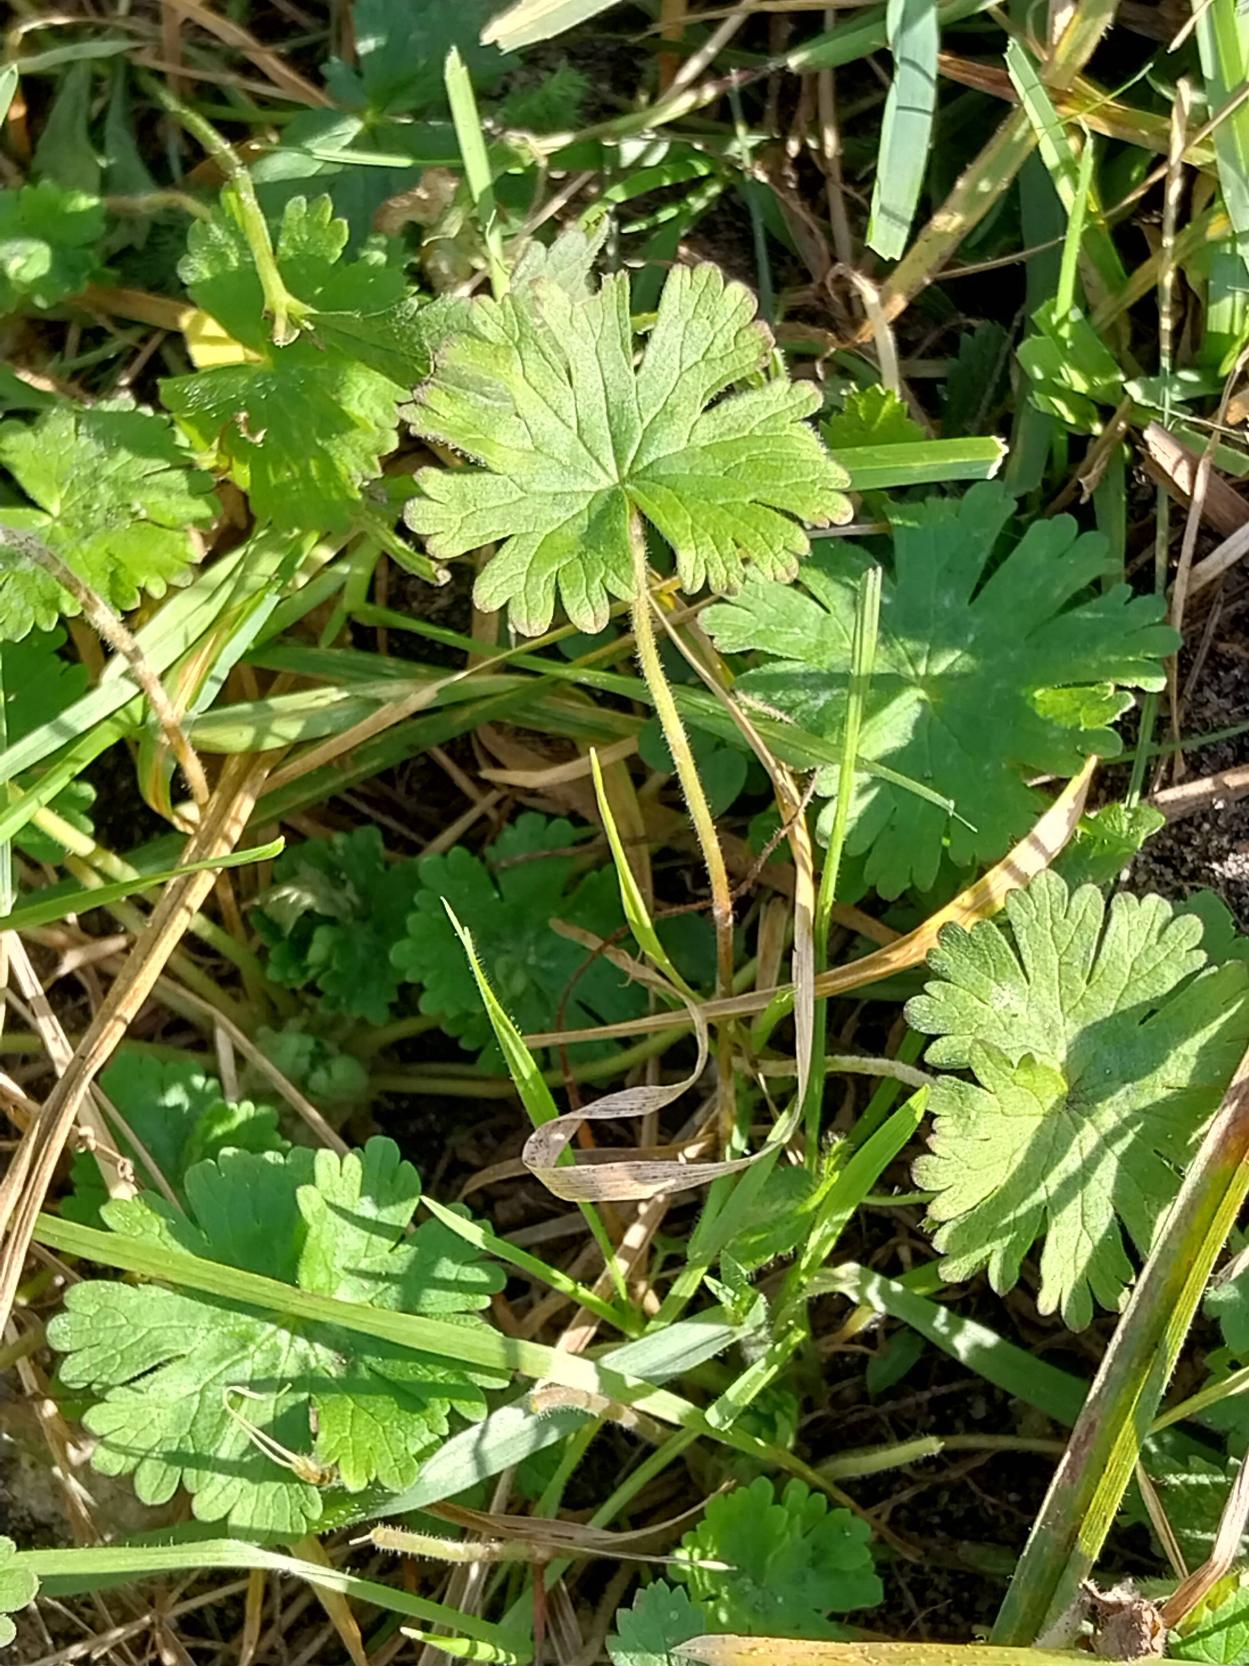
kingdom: Plantae
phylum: Tracheophyta
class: Magnoliopsida
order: Geraniales
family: Geraniaceae
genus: Geranium
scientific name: Geranium pusillum
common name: Liden storkenæb
